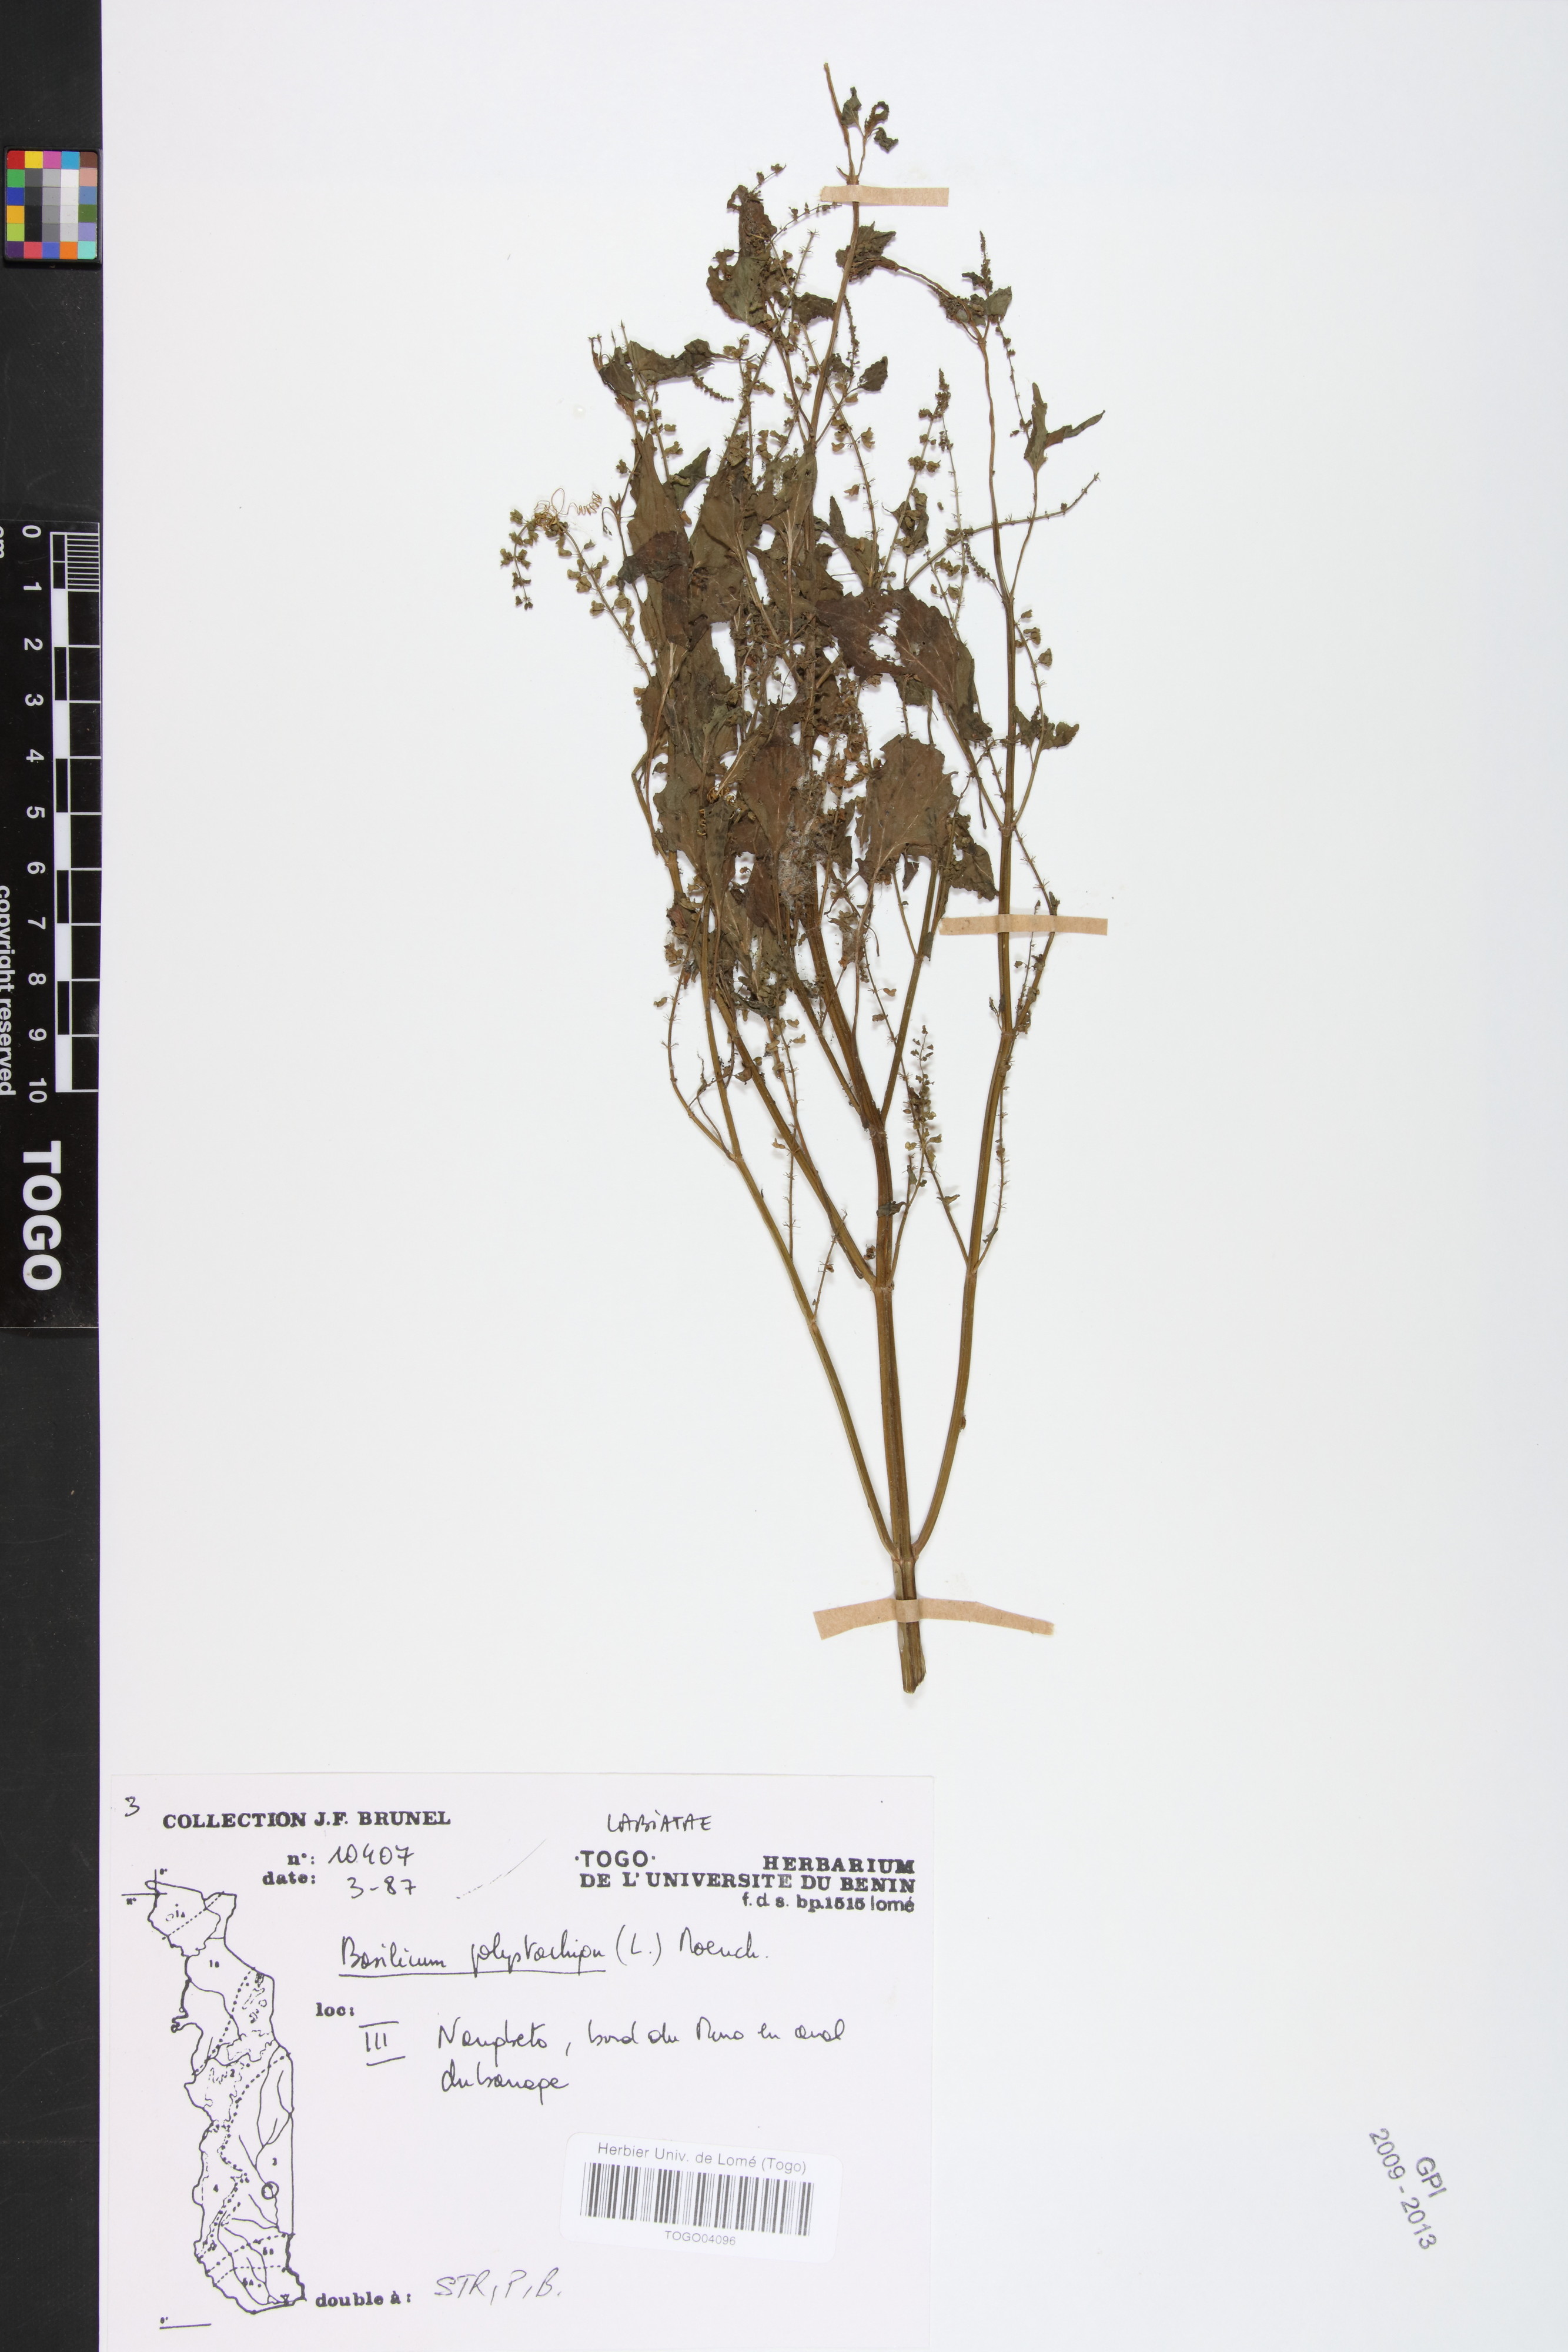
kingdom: Plantae
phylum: Tracheophyta
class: Magnoliopsida
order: Lamiales
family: Lamiaceae
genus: Basilicum
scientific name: Basilicum polystachyon
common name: Musk-basil
